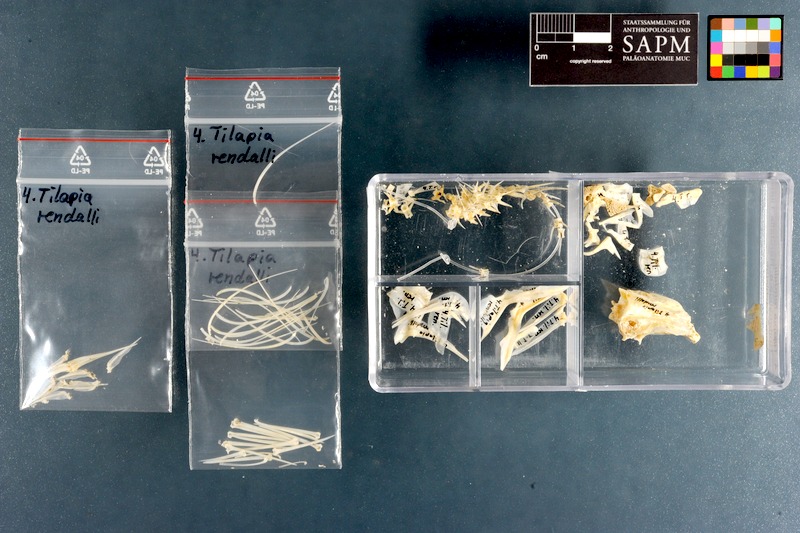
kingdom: Animalia
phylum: Chordata
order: Perciformes
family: Cichlidae
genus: Coptodon
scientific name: Coptodon rendalli
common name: Redbreast tilapia
